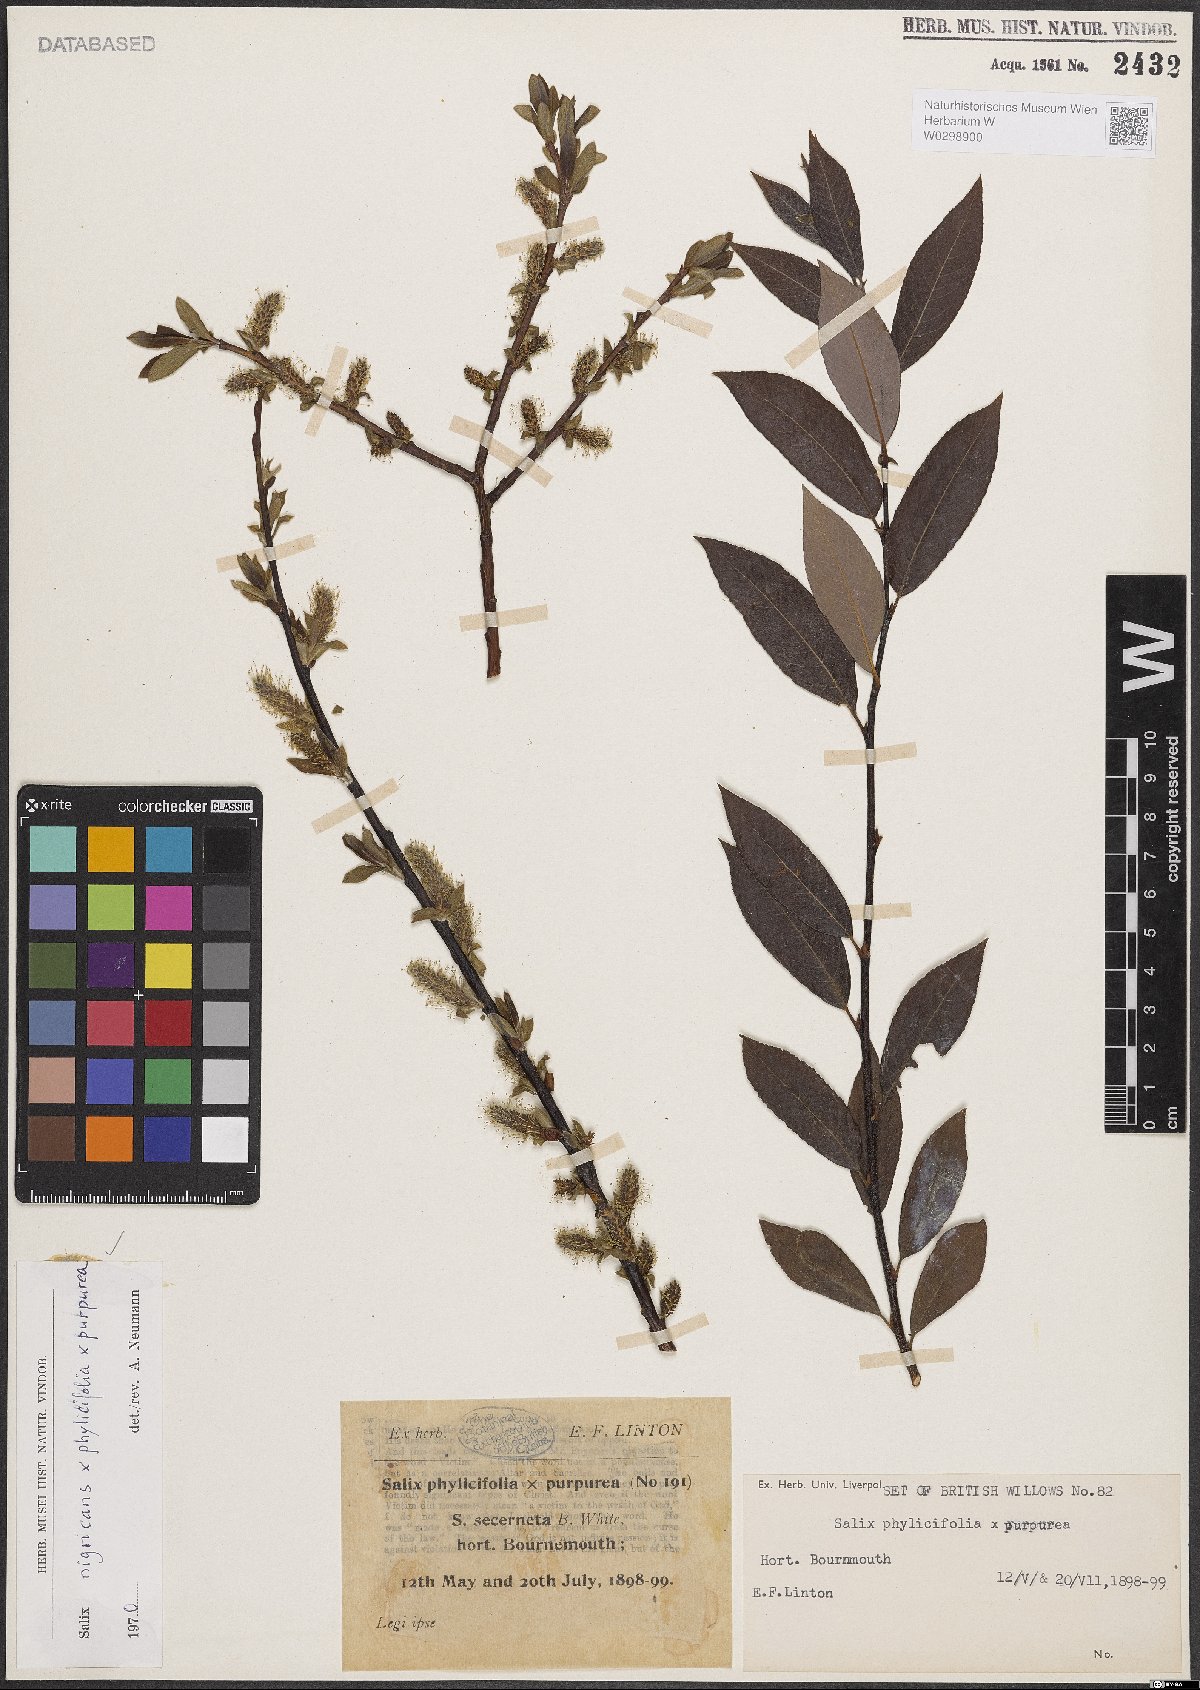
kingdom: Plantae
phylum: Tracheophyta
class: Magnoliopsida
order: Malpighiales
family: Salicaceae
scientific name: Salicaceae
